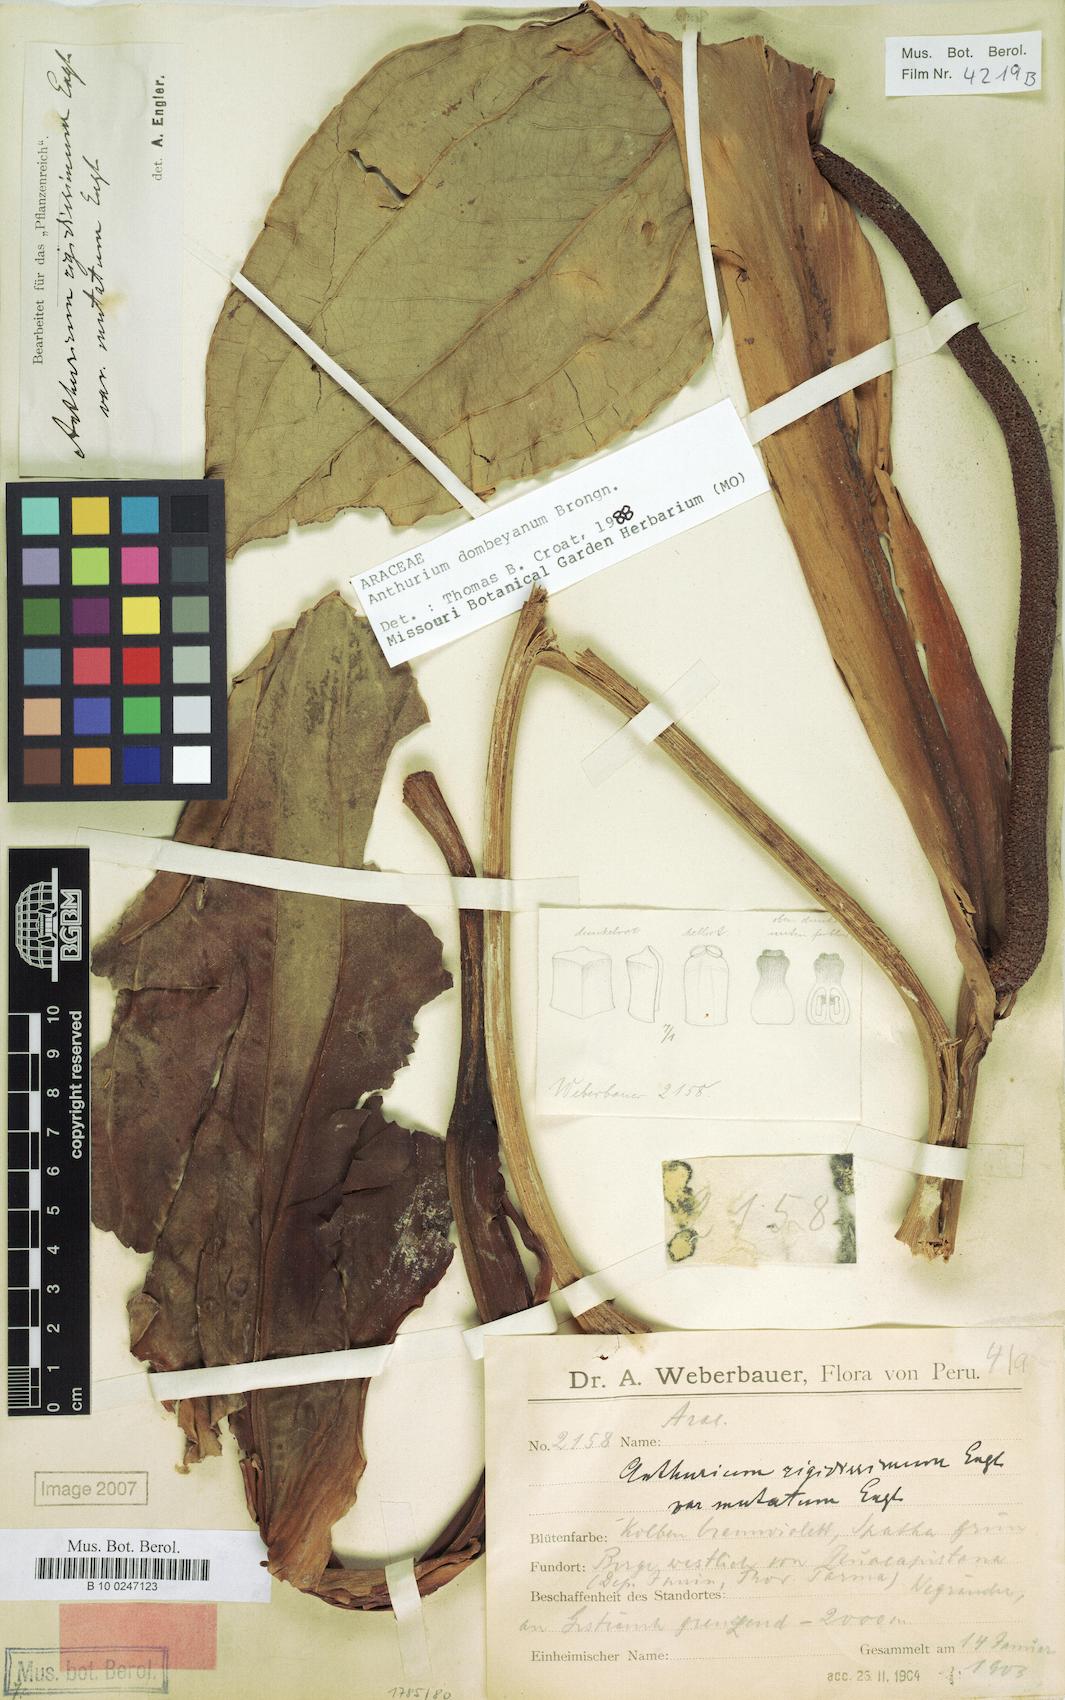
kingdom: Plantae
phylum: Tracheophyta
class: Liliopsida
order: Alismatales
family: Araceae
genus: Anthurium
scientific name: Anthurium dombeyanum
